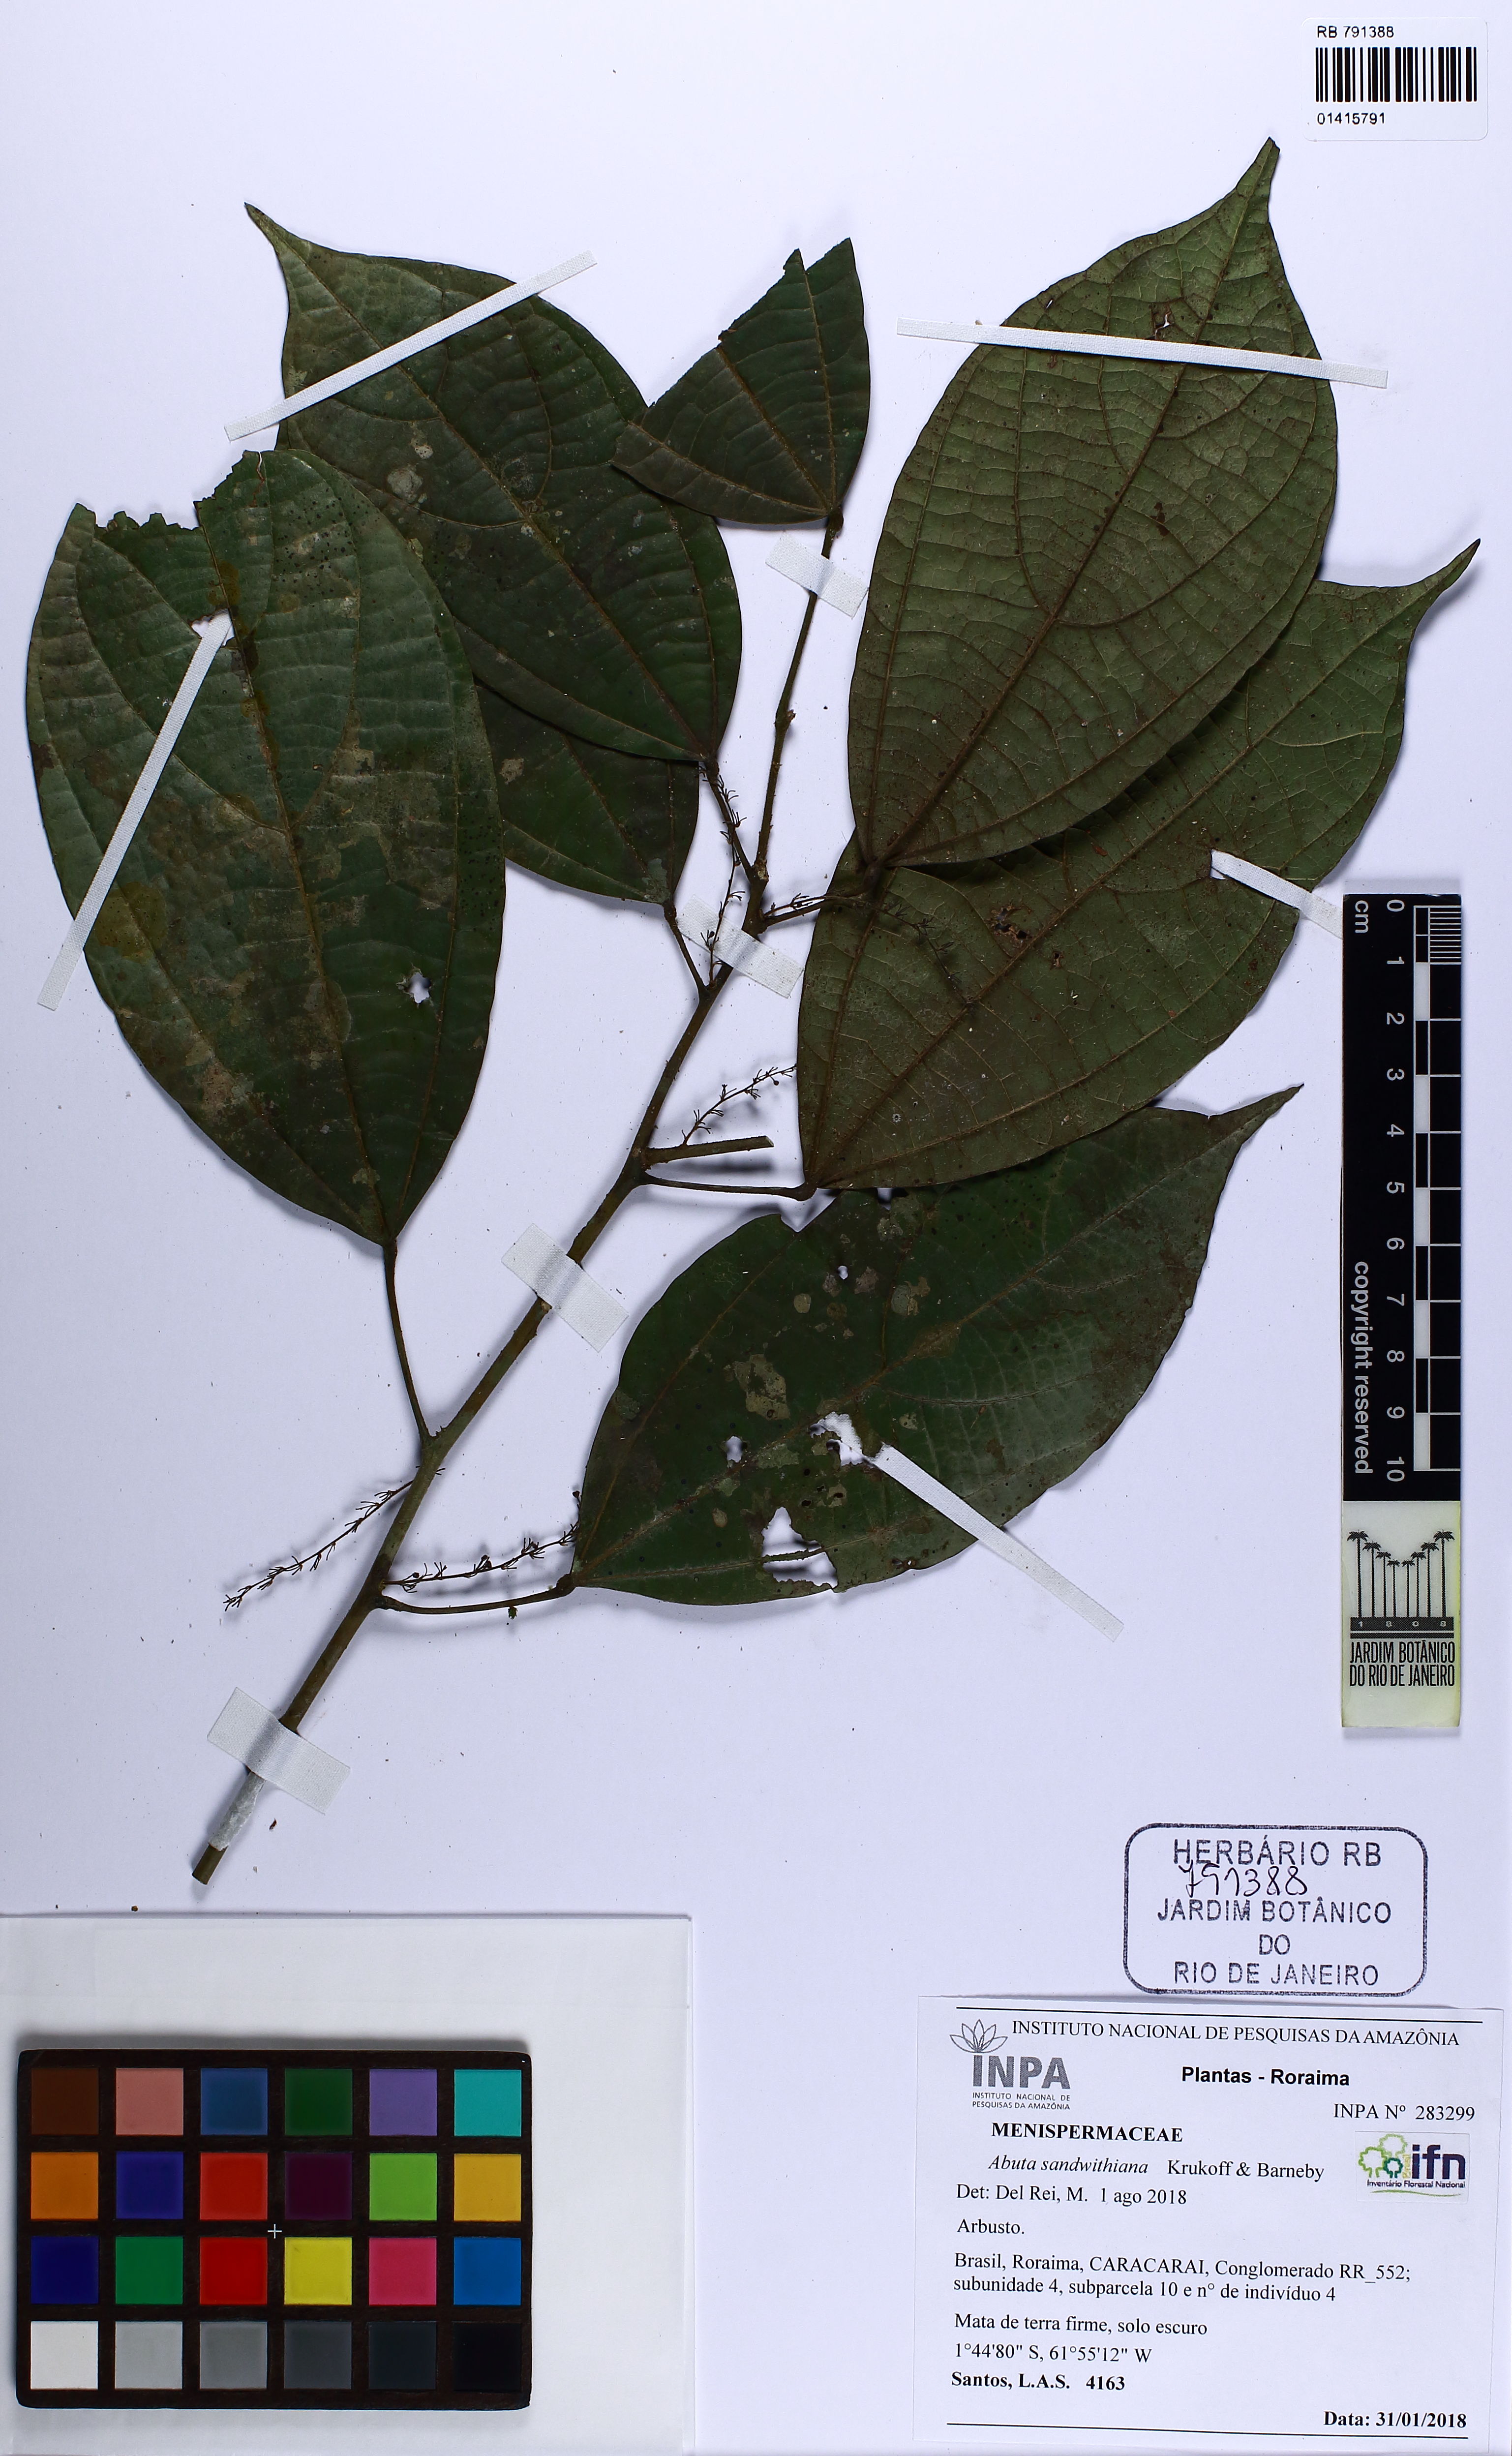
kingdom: Plantae
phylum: Tracheophyta
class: Magnoliopsida
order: Ranunculales
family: Menispermaceae
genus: Abuta
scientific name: Abuta sandwithiana
